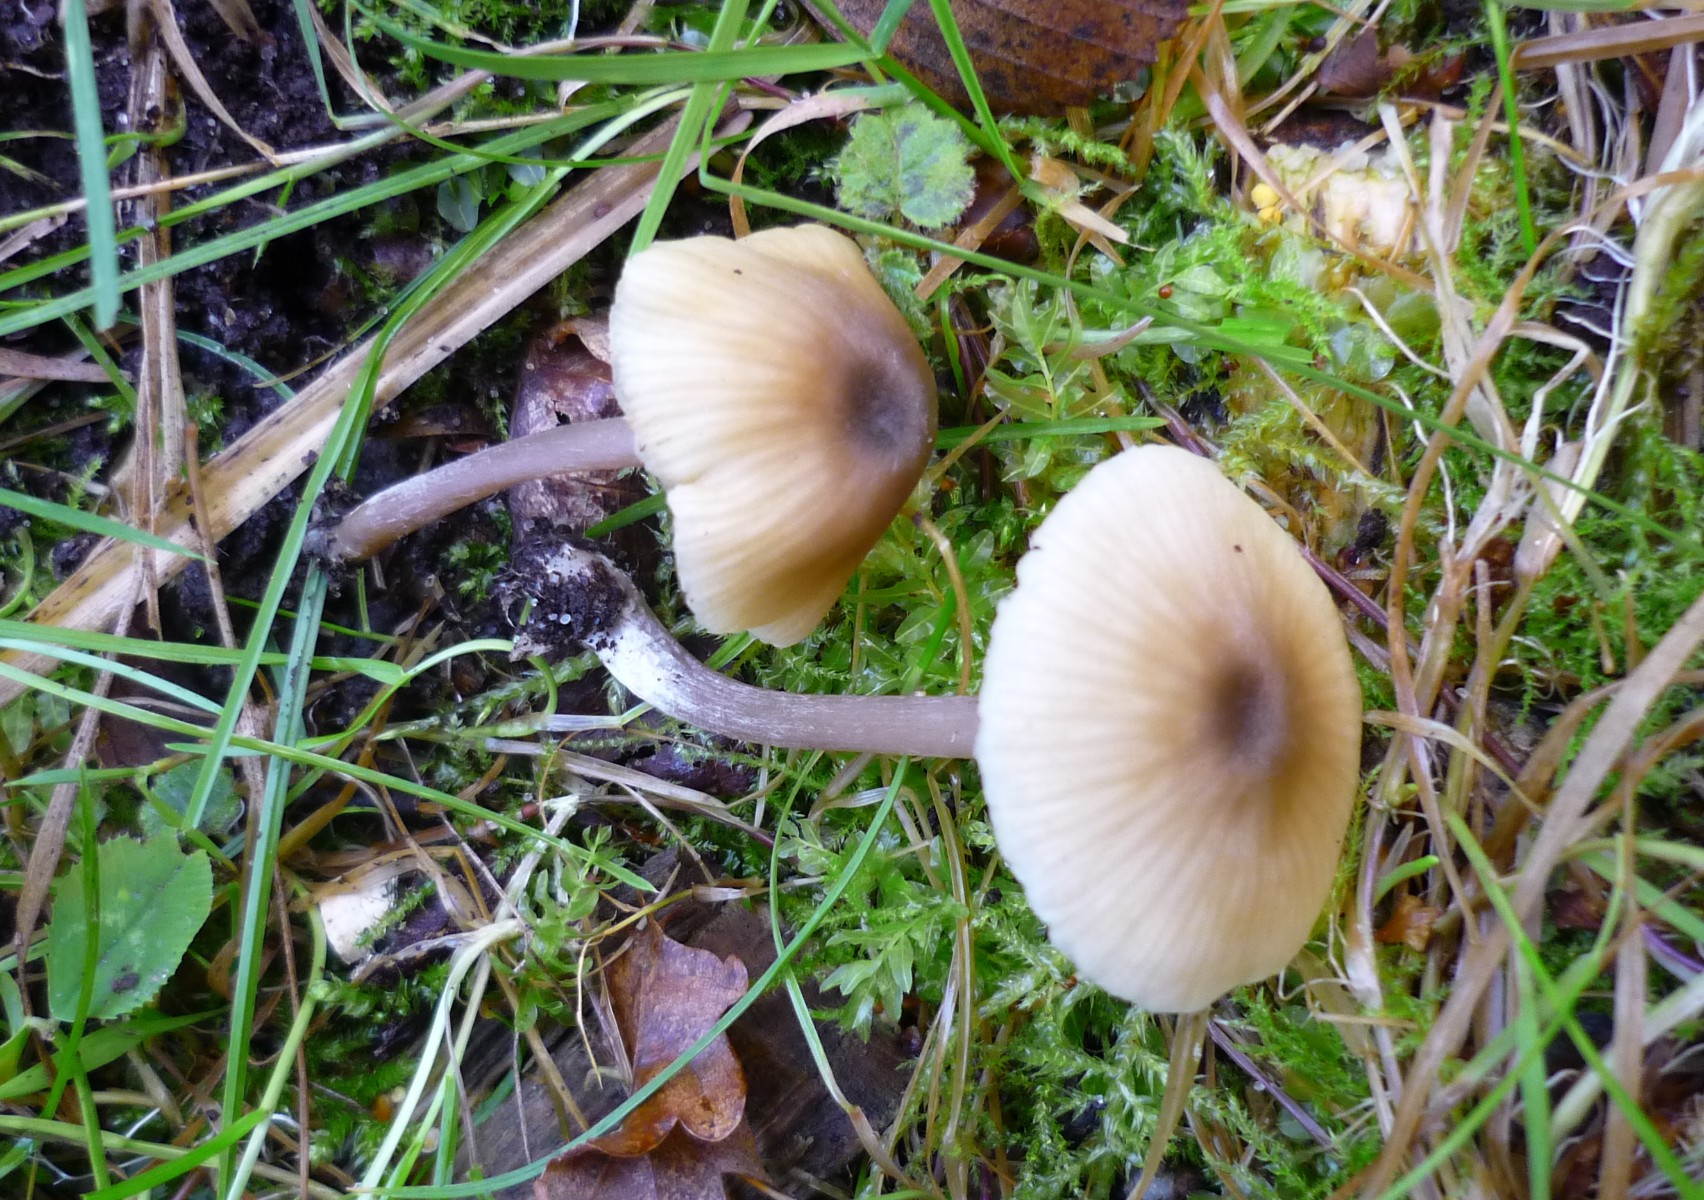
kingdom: Fungi
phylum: Basidiomycota
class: Agaricomycetes
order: Agaricales
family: Entolomataceae
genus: Entoloma
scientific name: Entoloma pleopodium
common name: duftende rødblad
